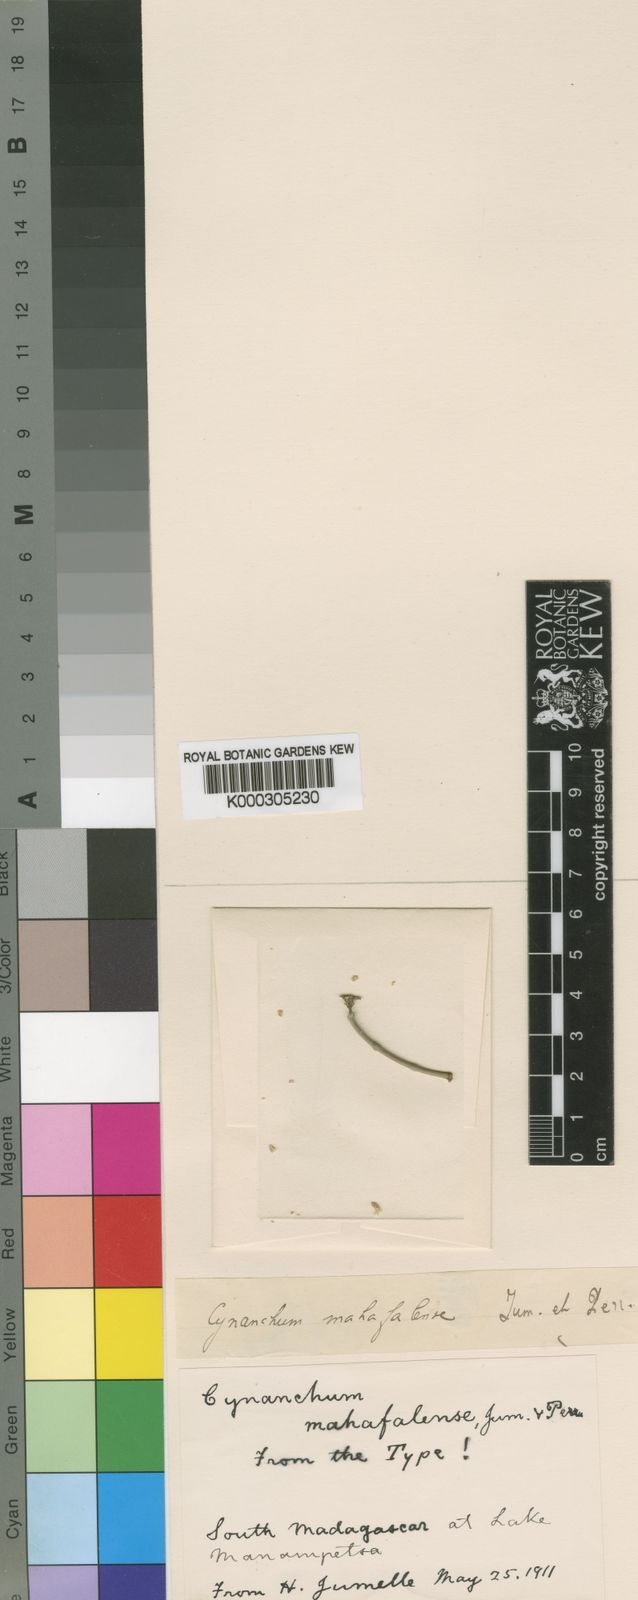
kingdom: Plantae
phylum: Tracheophyta
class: Magnoliopsida
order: Gentianales
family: Apocynaceae
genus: Cynanchum
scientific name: Cynanchum
